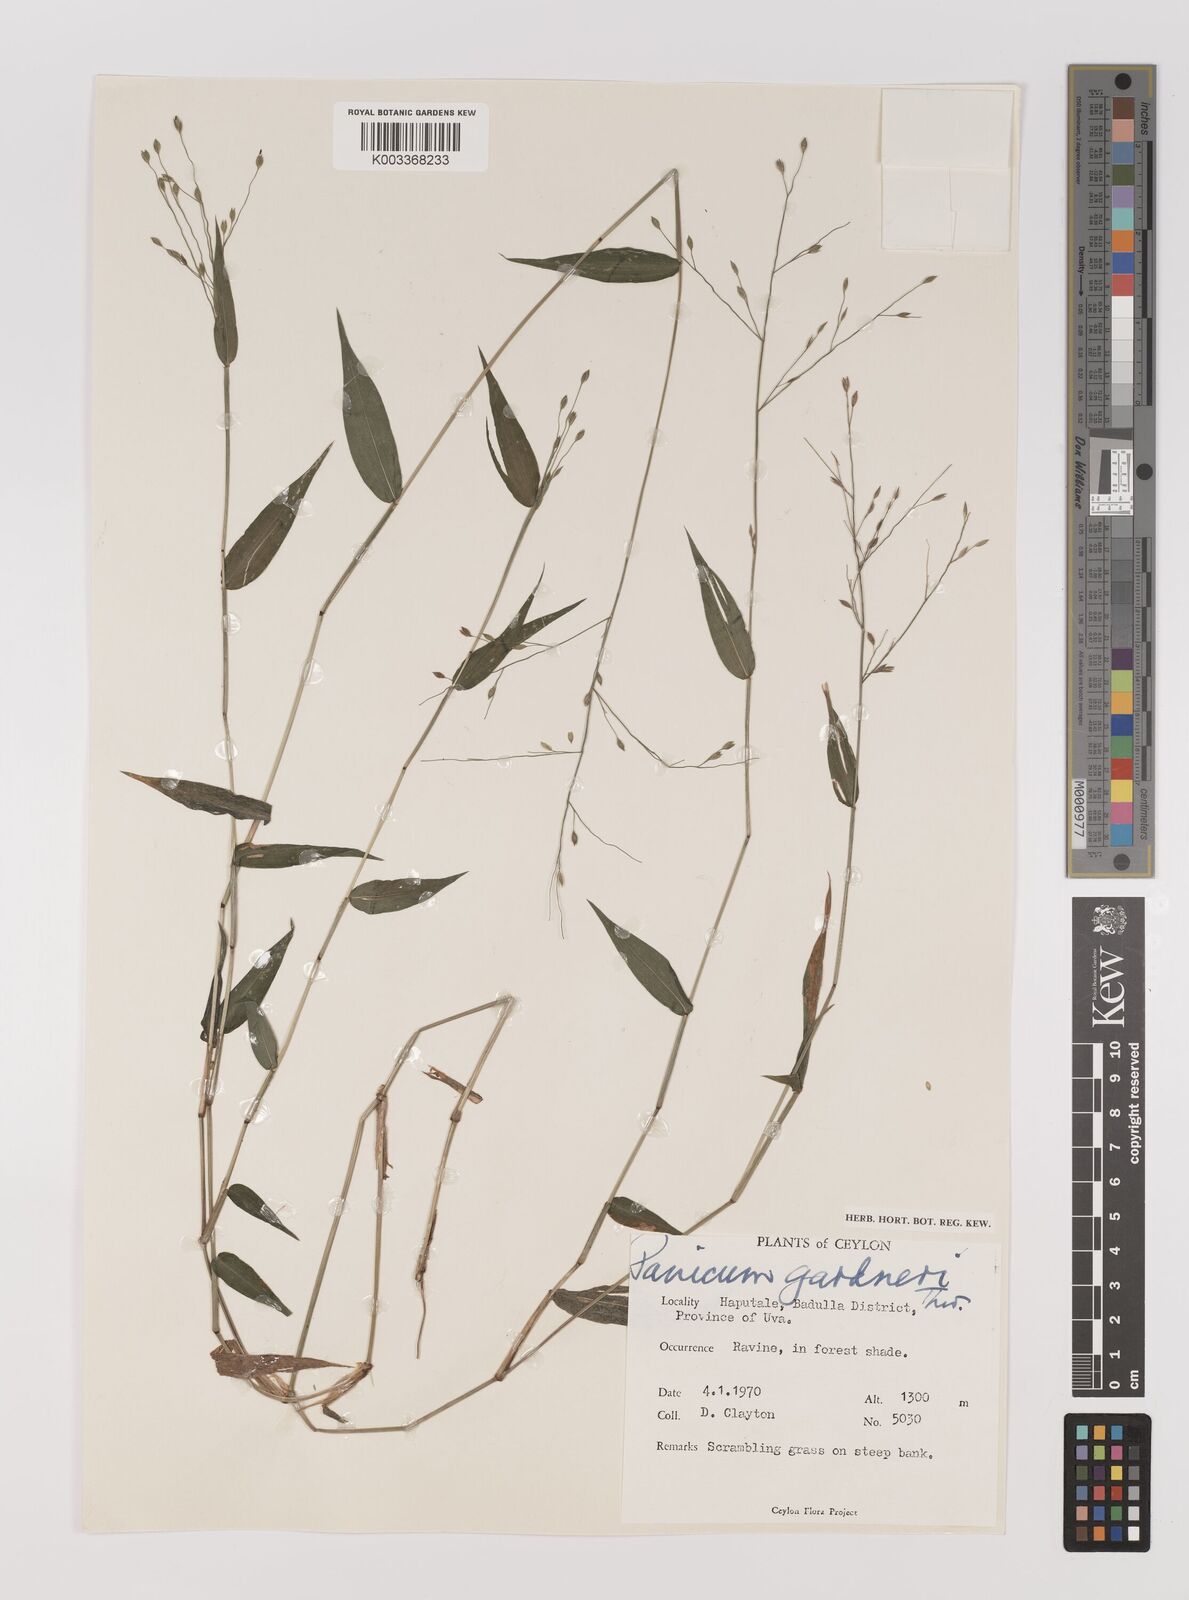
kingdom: Plantae
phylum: Tracheophyta
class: Liliopsida
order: Poales
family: Poaceae
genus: Panicum
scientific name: Panicum gardneri
